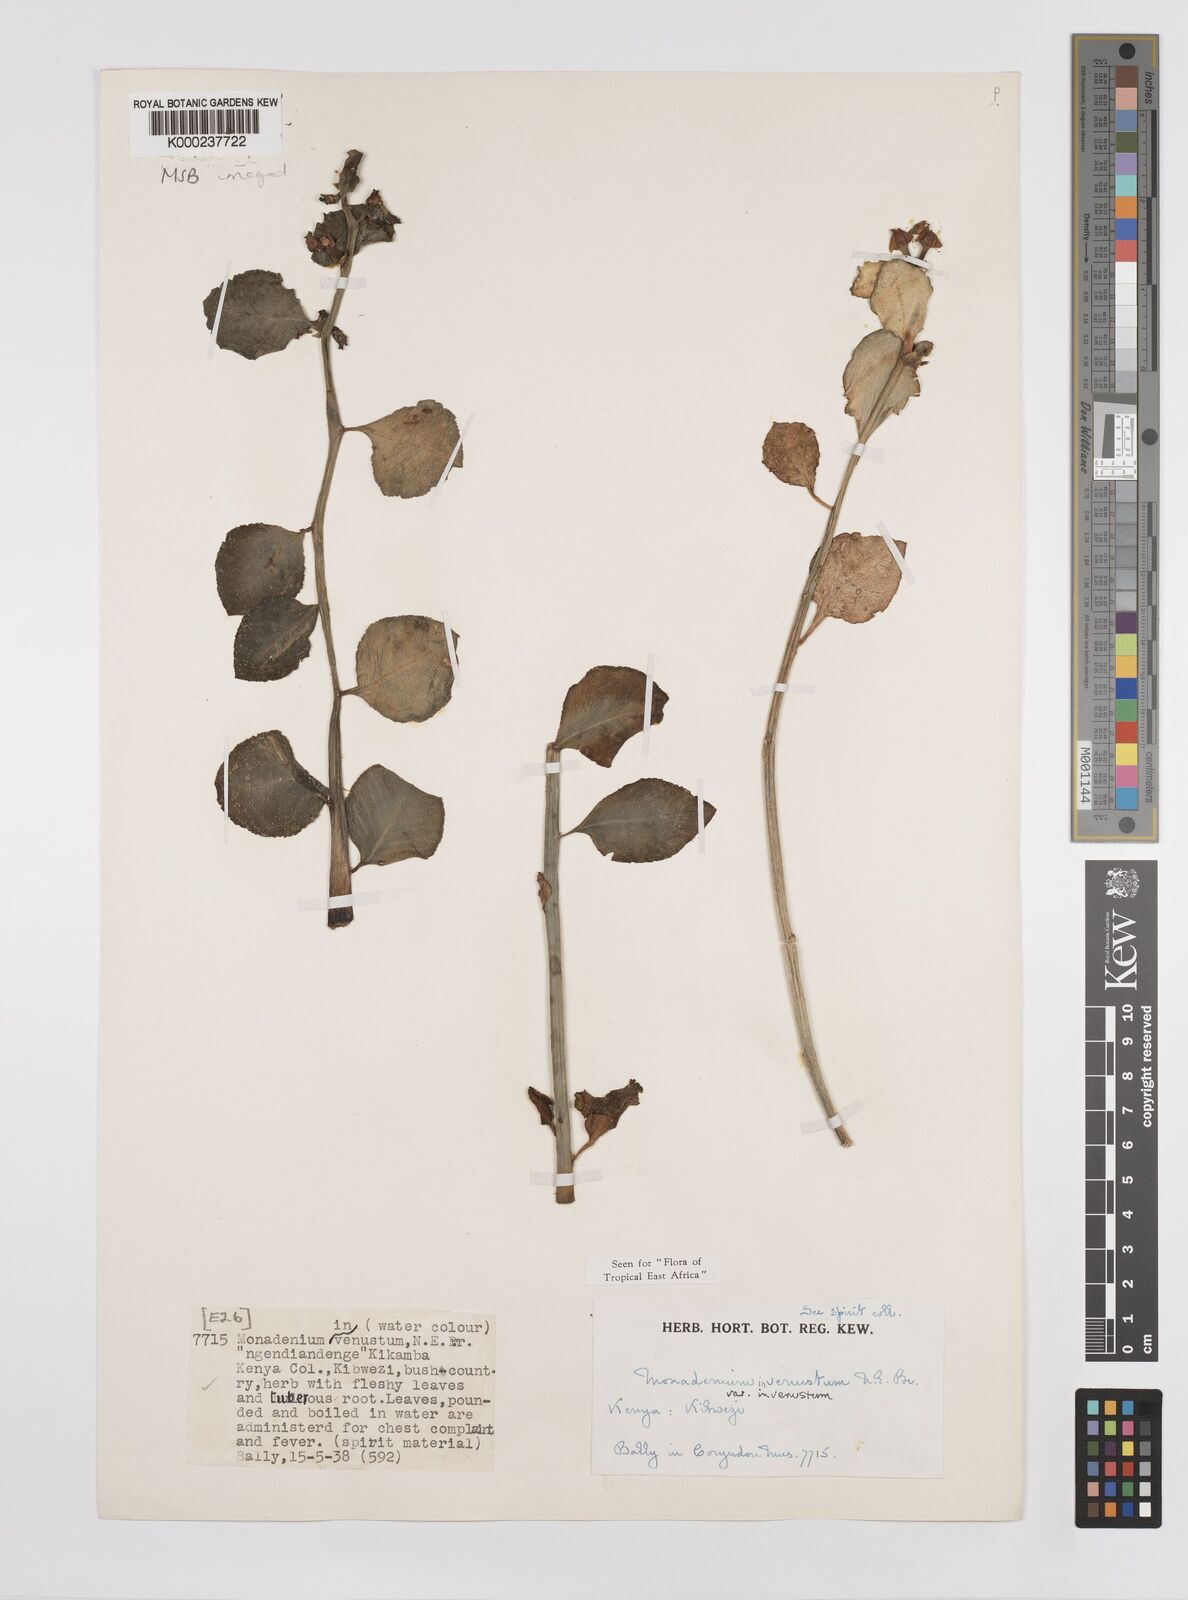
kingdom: Plantae
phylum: Tracheophyta
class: Magnoliopsida
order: Malpighiales
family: Euphorbiaceae
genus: Euphorbia
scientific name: Euphorbia invenusta
